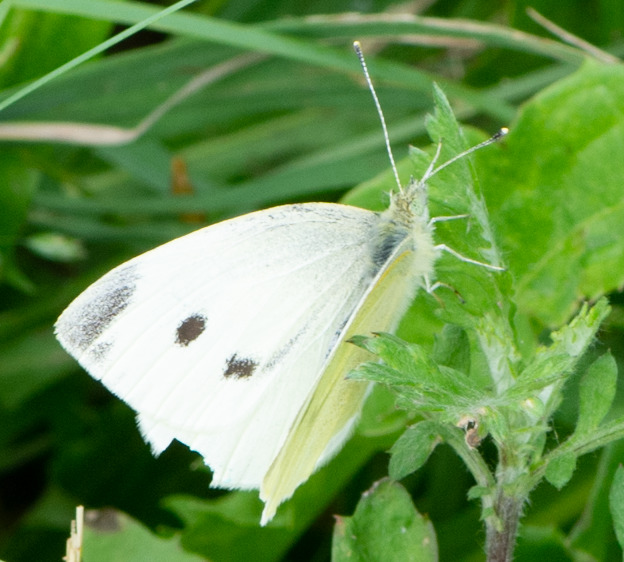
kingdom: Animalia
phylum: Arthropoda
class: Insecta
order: Lepidoptera
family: Pieridae
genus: Pieris
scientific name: Pieris rapae
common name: Lille kålsommerfugl
